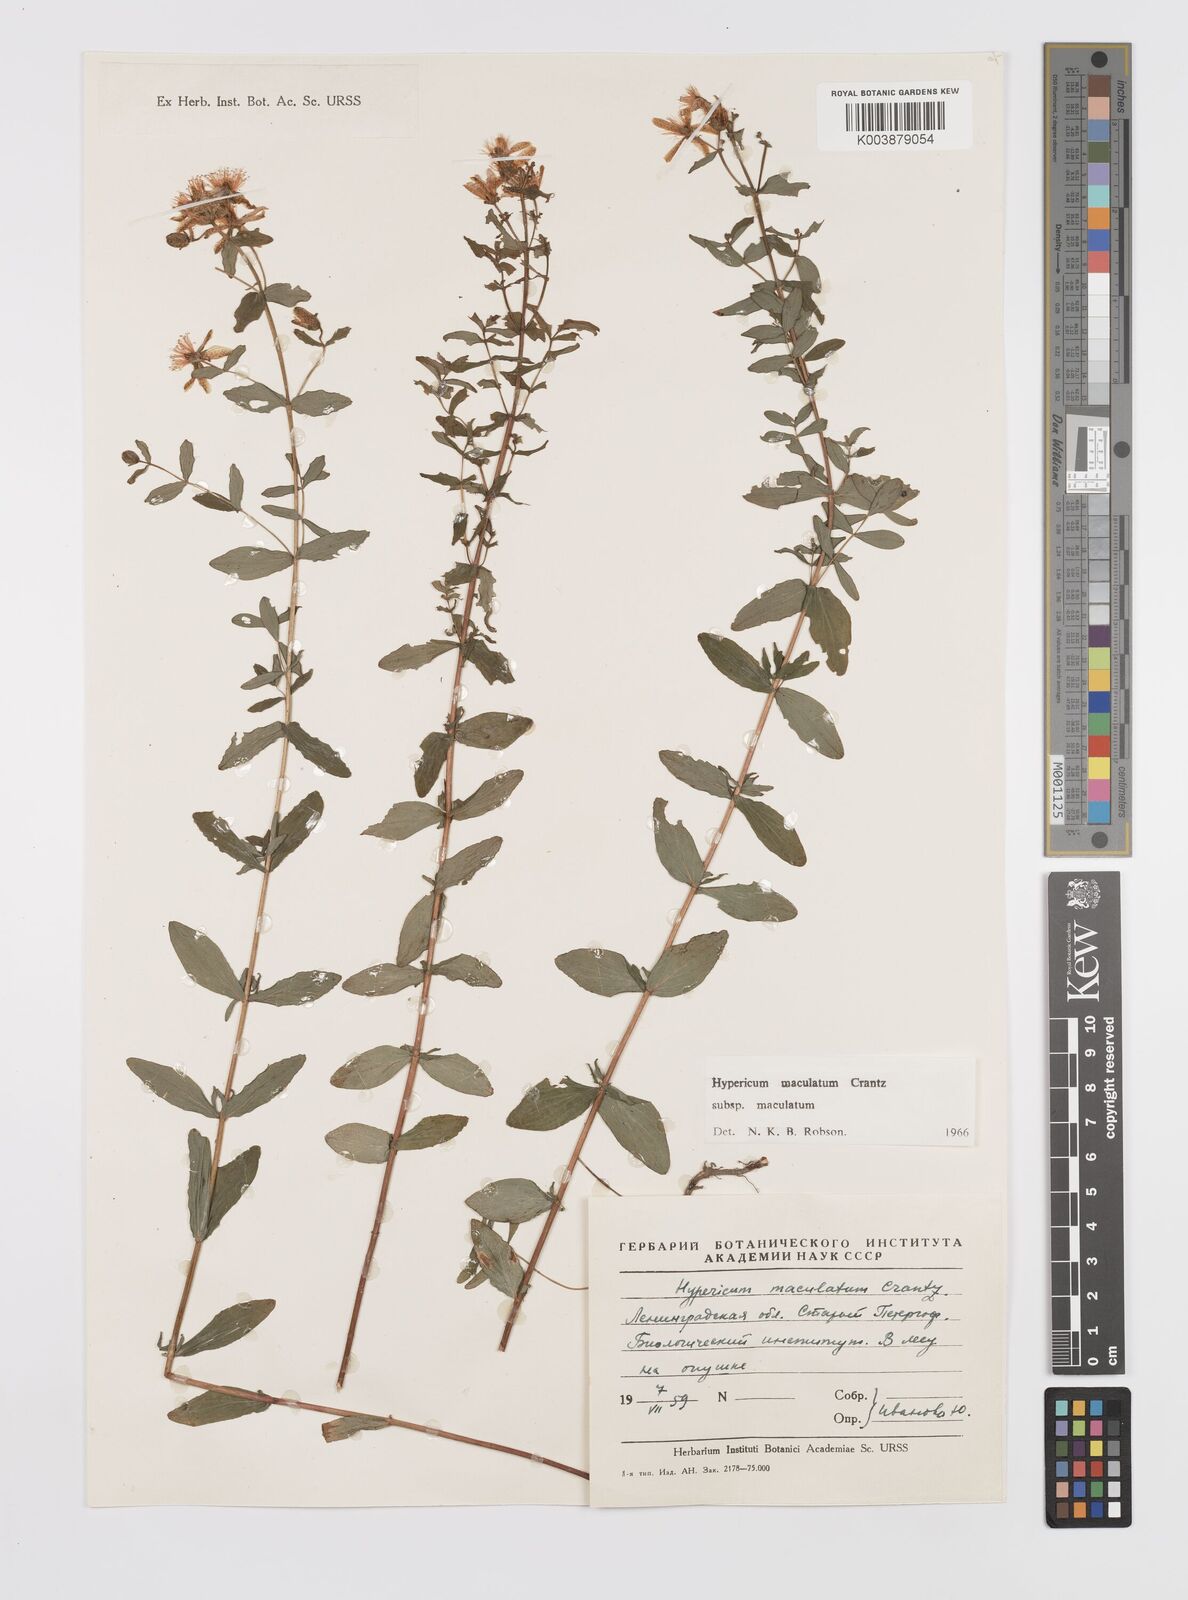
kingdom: Plantae
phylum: Tracheophyta
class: Magnoliopsida
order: Malpighiales
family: Hypericaceae
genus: Hypericum
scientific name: Hypericum maculatum
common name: Imperforate st. john's-wort
